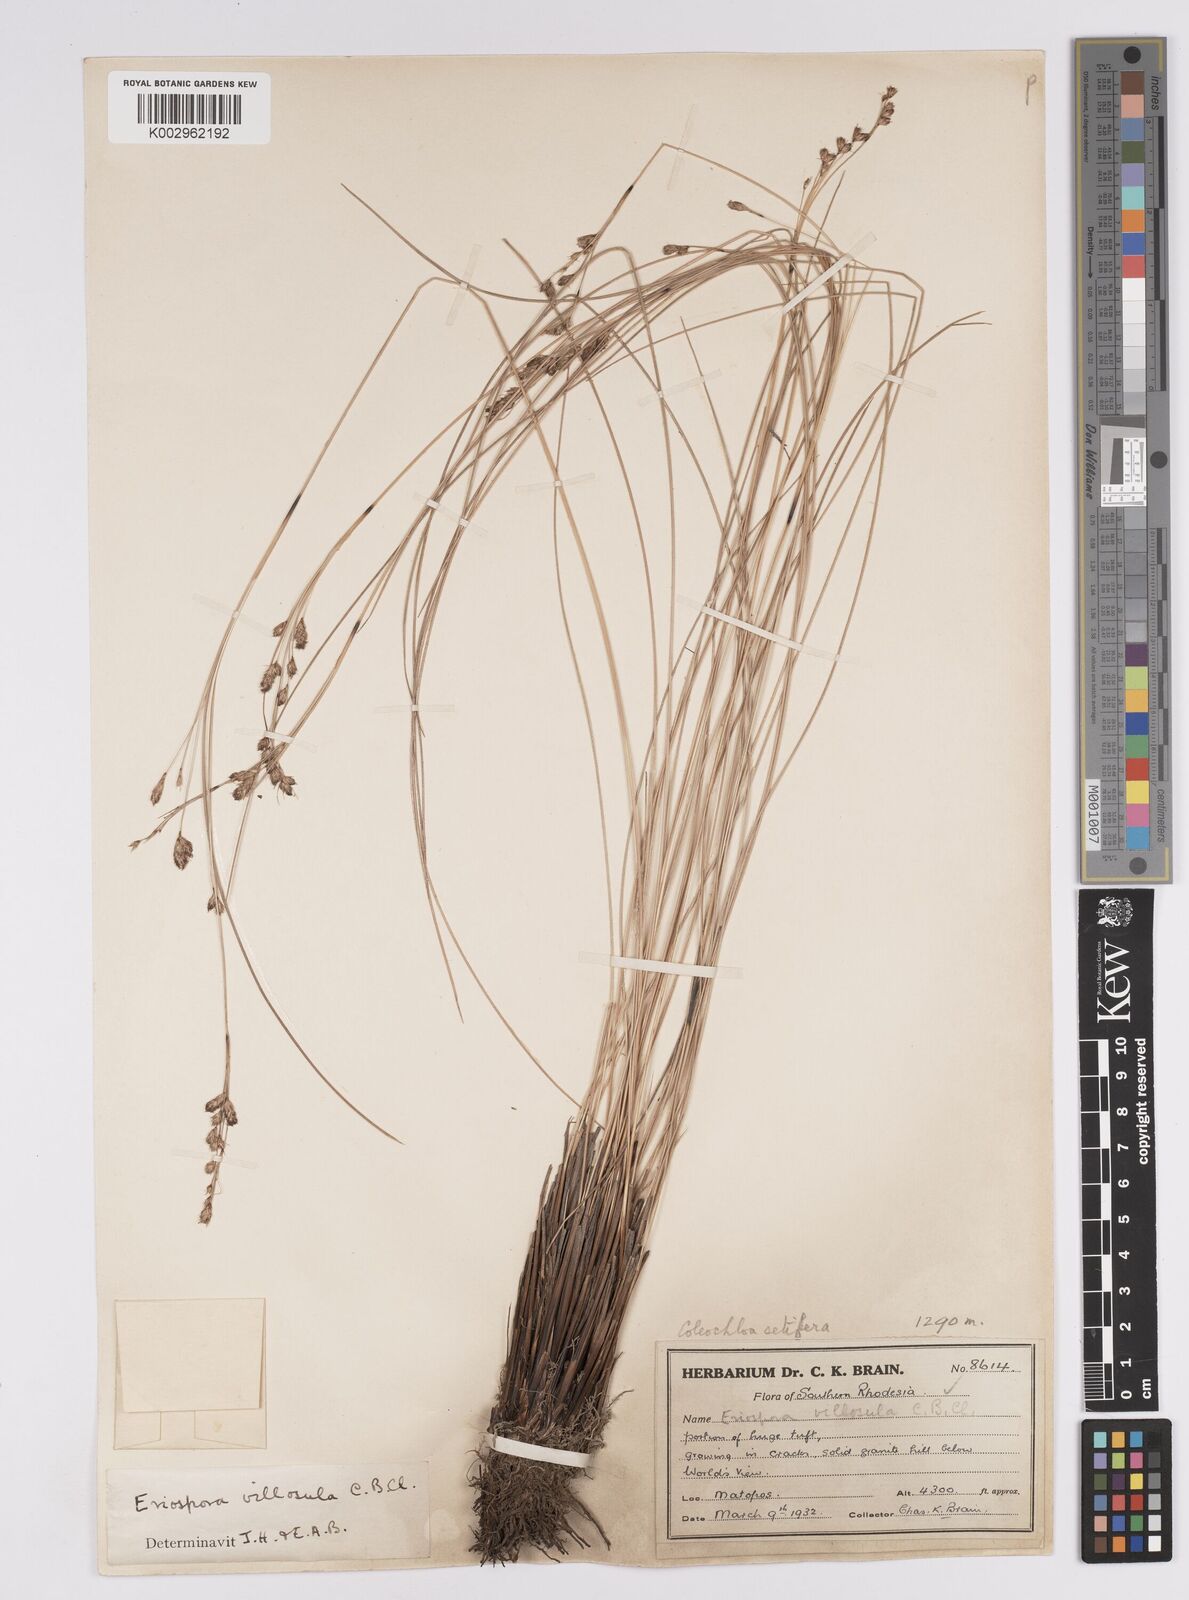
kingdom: Plantae
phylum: Tracheophyta
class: Liliopsida
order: Poales
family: Cyperaceae
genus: Coleochloa
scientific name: Coleochloa setifera
